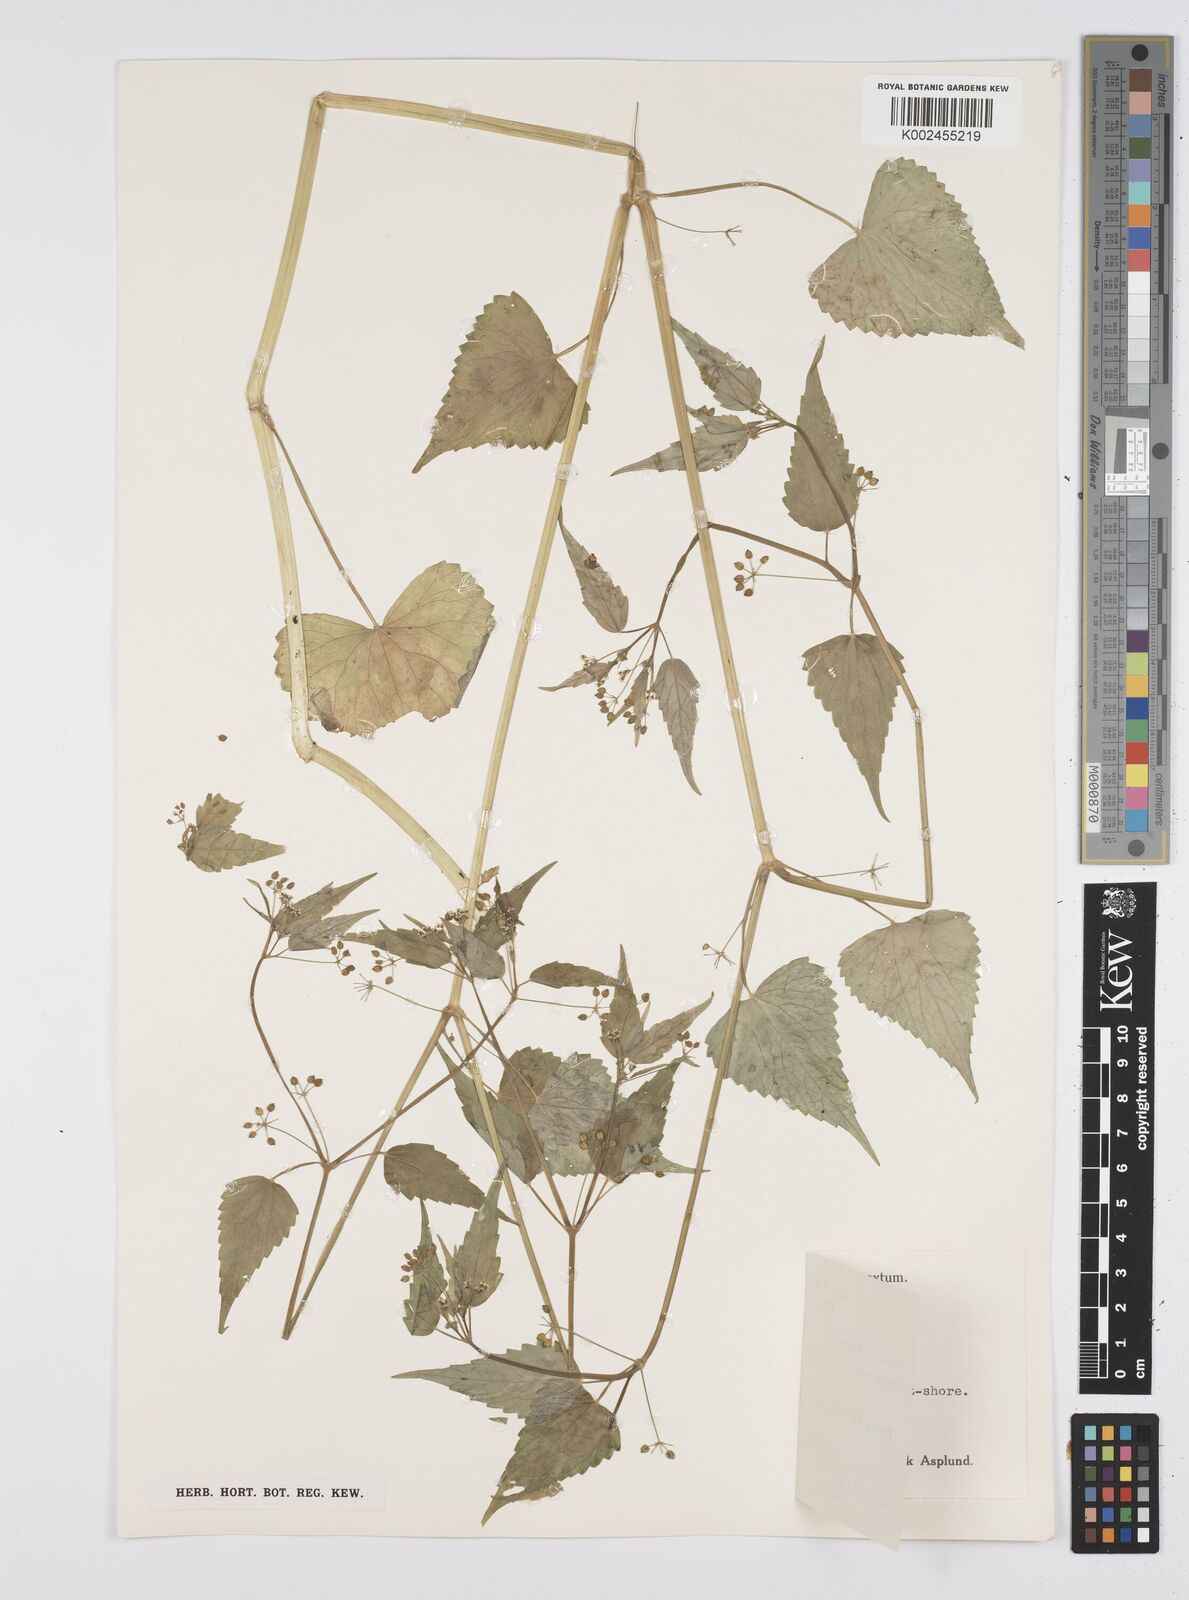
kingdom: Plantae
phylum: Tracheophyta
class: Magnoliopsida
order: Apiales
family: Apiaceae
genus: Azorella
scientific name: Azorella
